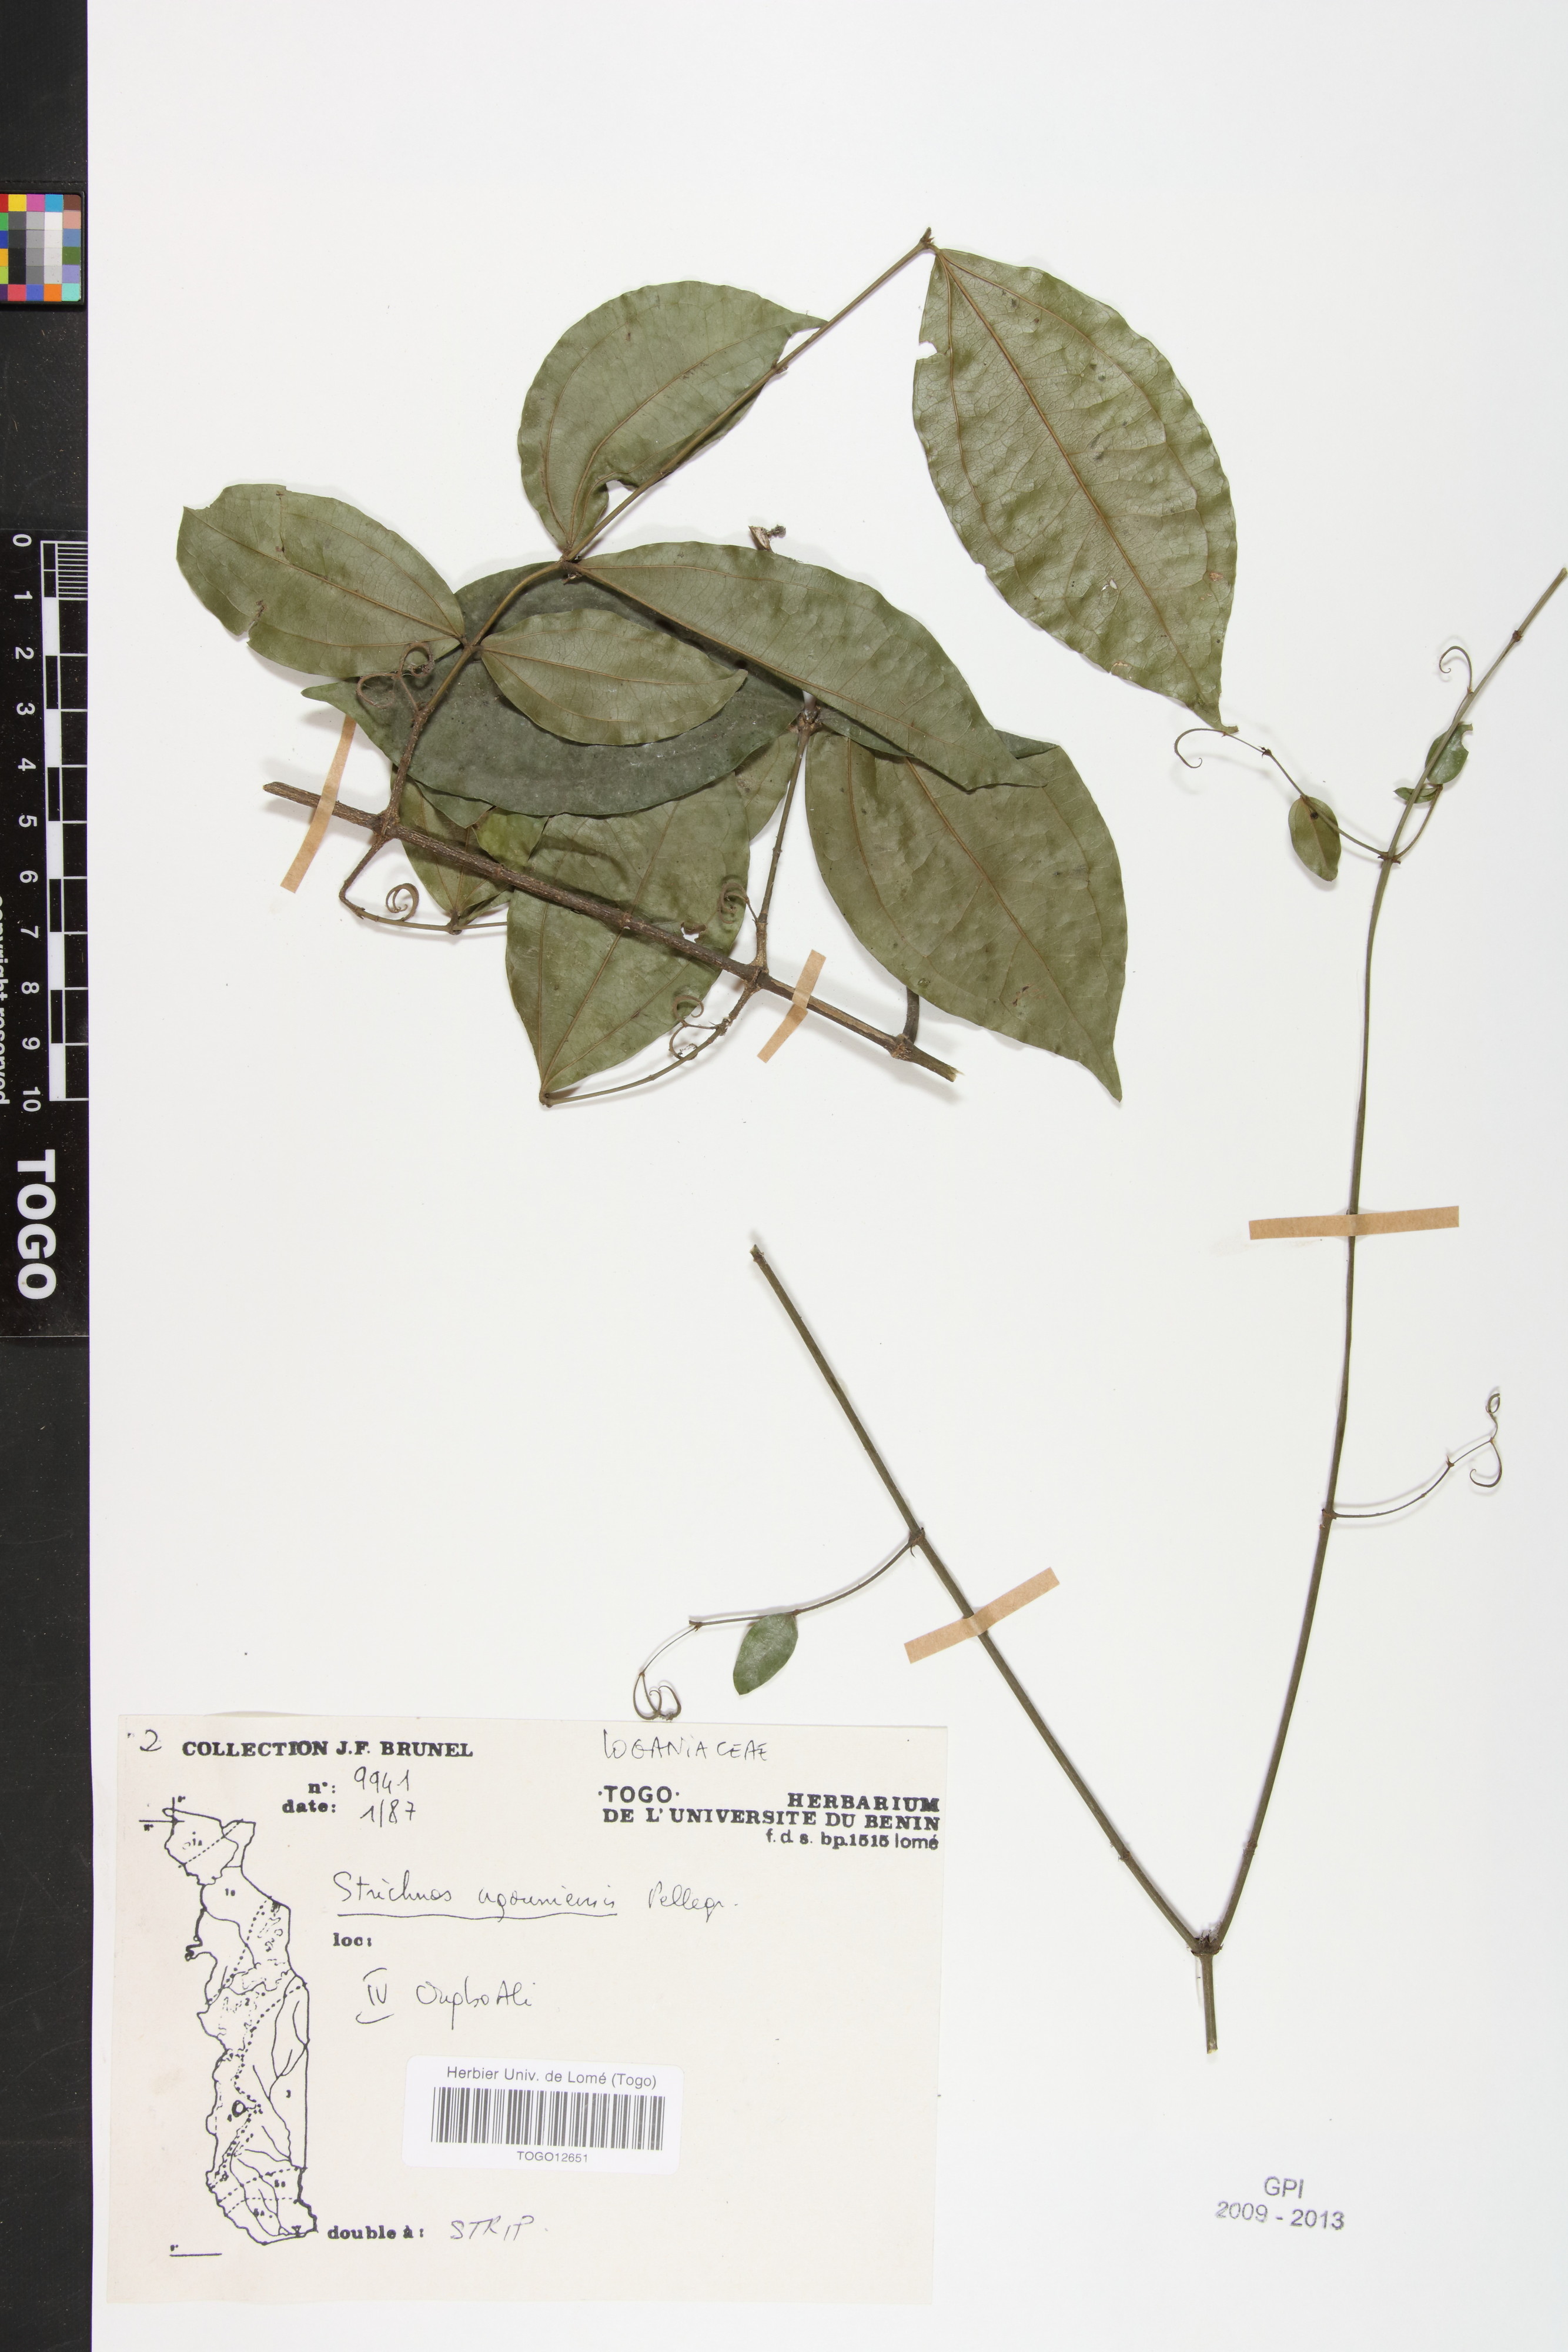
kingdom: Plantae
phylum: Tracheophyta
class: Magnoliopsida
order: Gentianales
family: Loganiaceae
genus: Strychnos
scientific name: Strychnos ngouniensis
